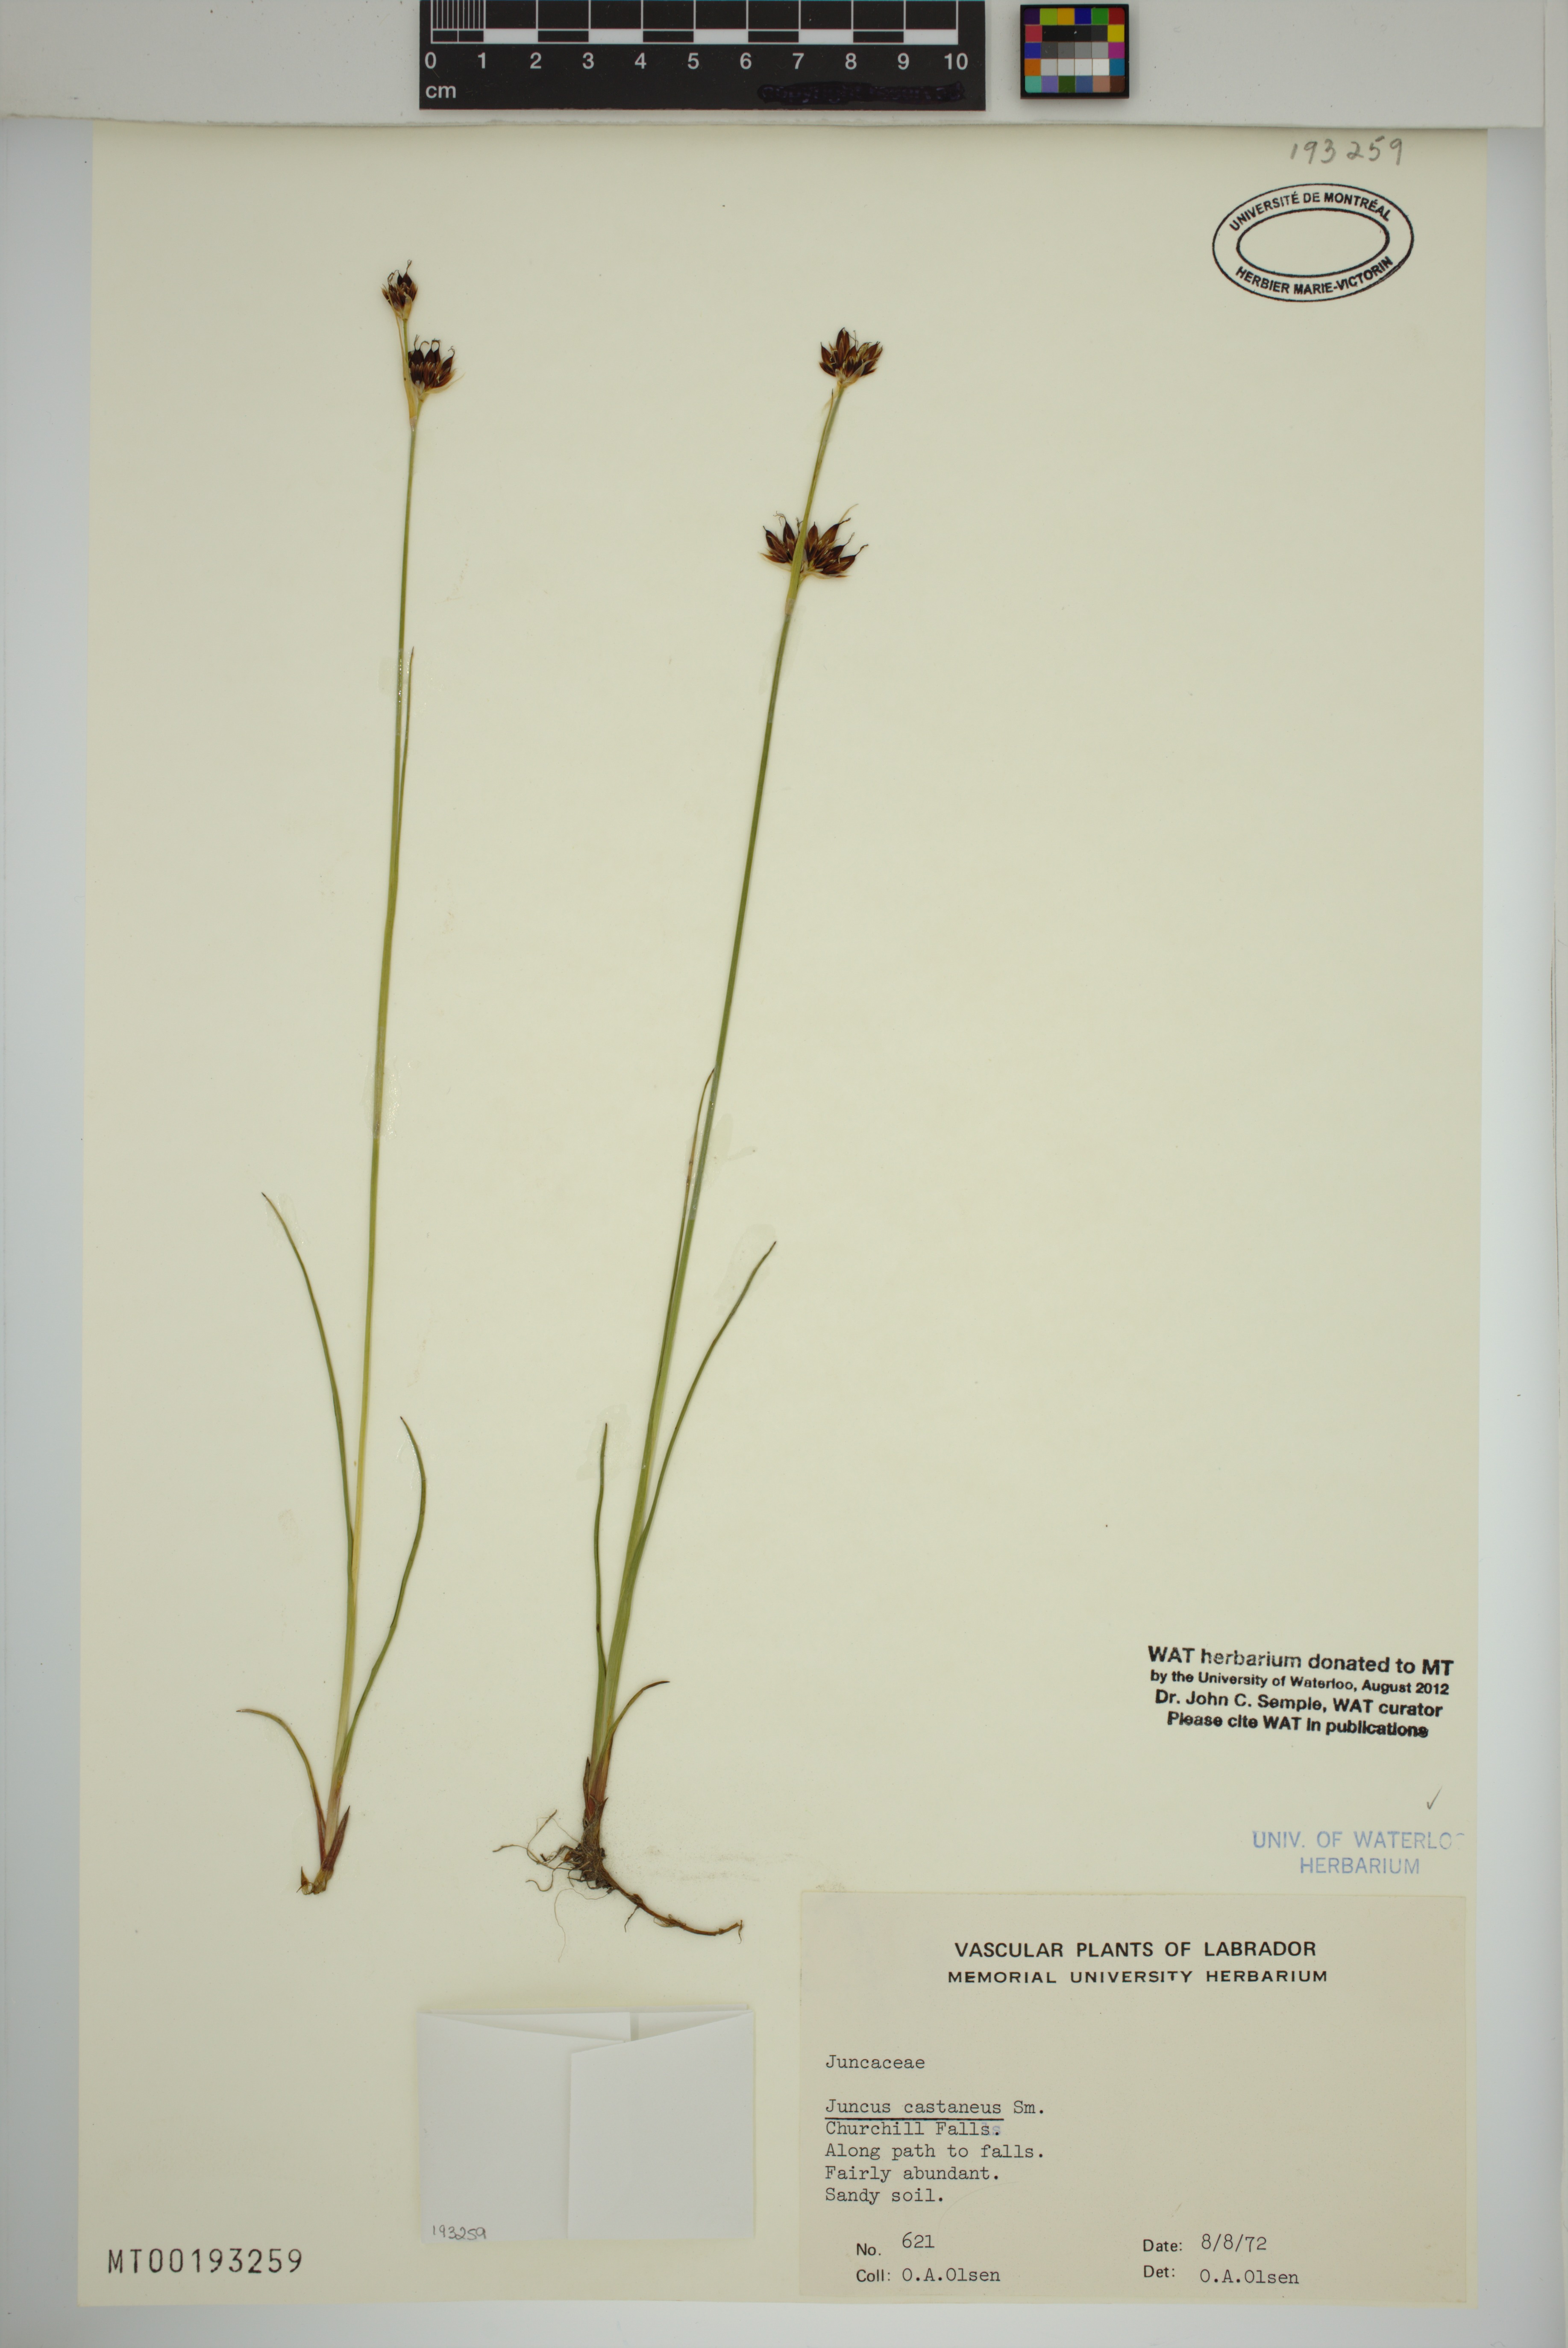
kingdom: Plantae
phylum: Tracheophyta
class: Liliopsida
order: Poales
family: Juncaceae
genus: Juncus
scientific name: Juncus castaneus
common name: Chestnut rush
